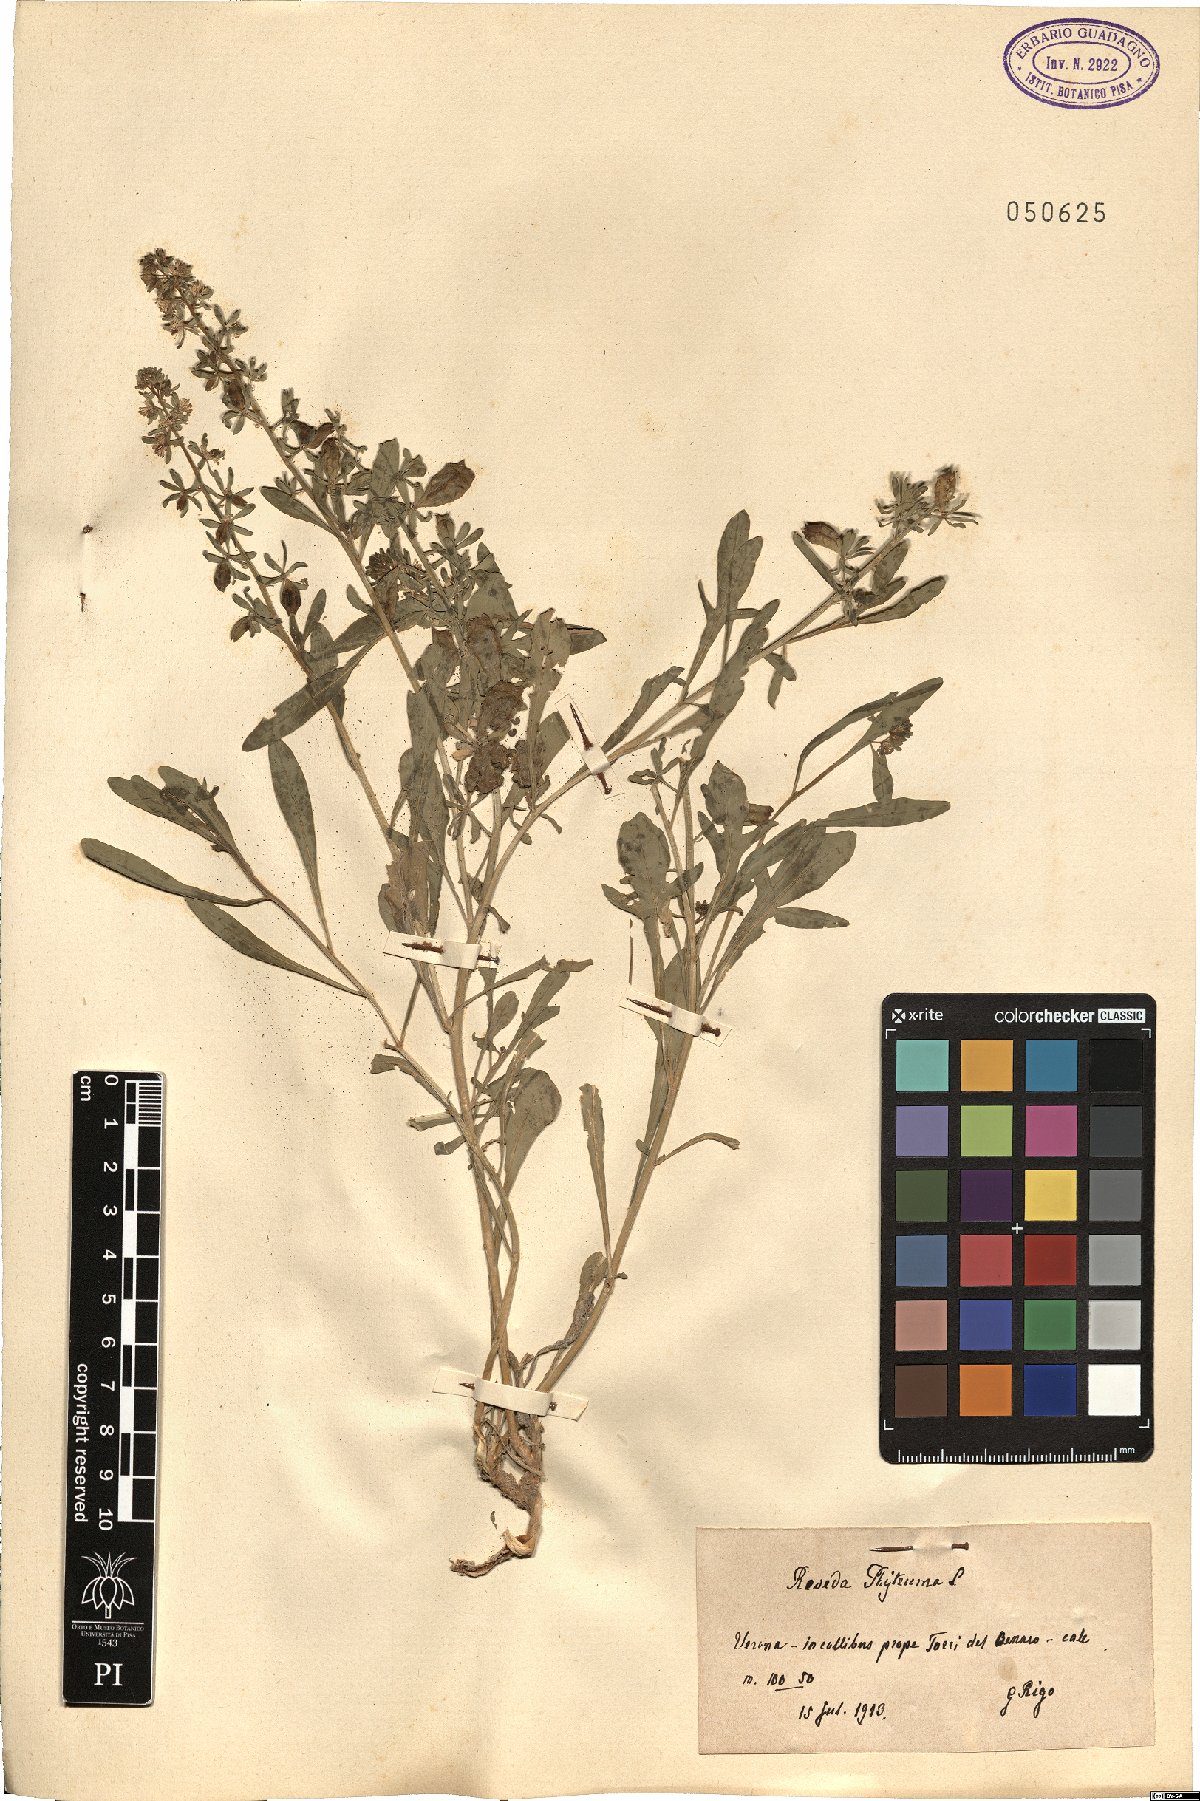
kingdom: Plantae
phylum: Tracheophyta
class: Magnoliopsida
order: Brassicales
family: Resedaceae
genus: Reseda
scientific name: Reseda phyteuma
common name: Corn mignonette
